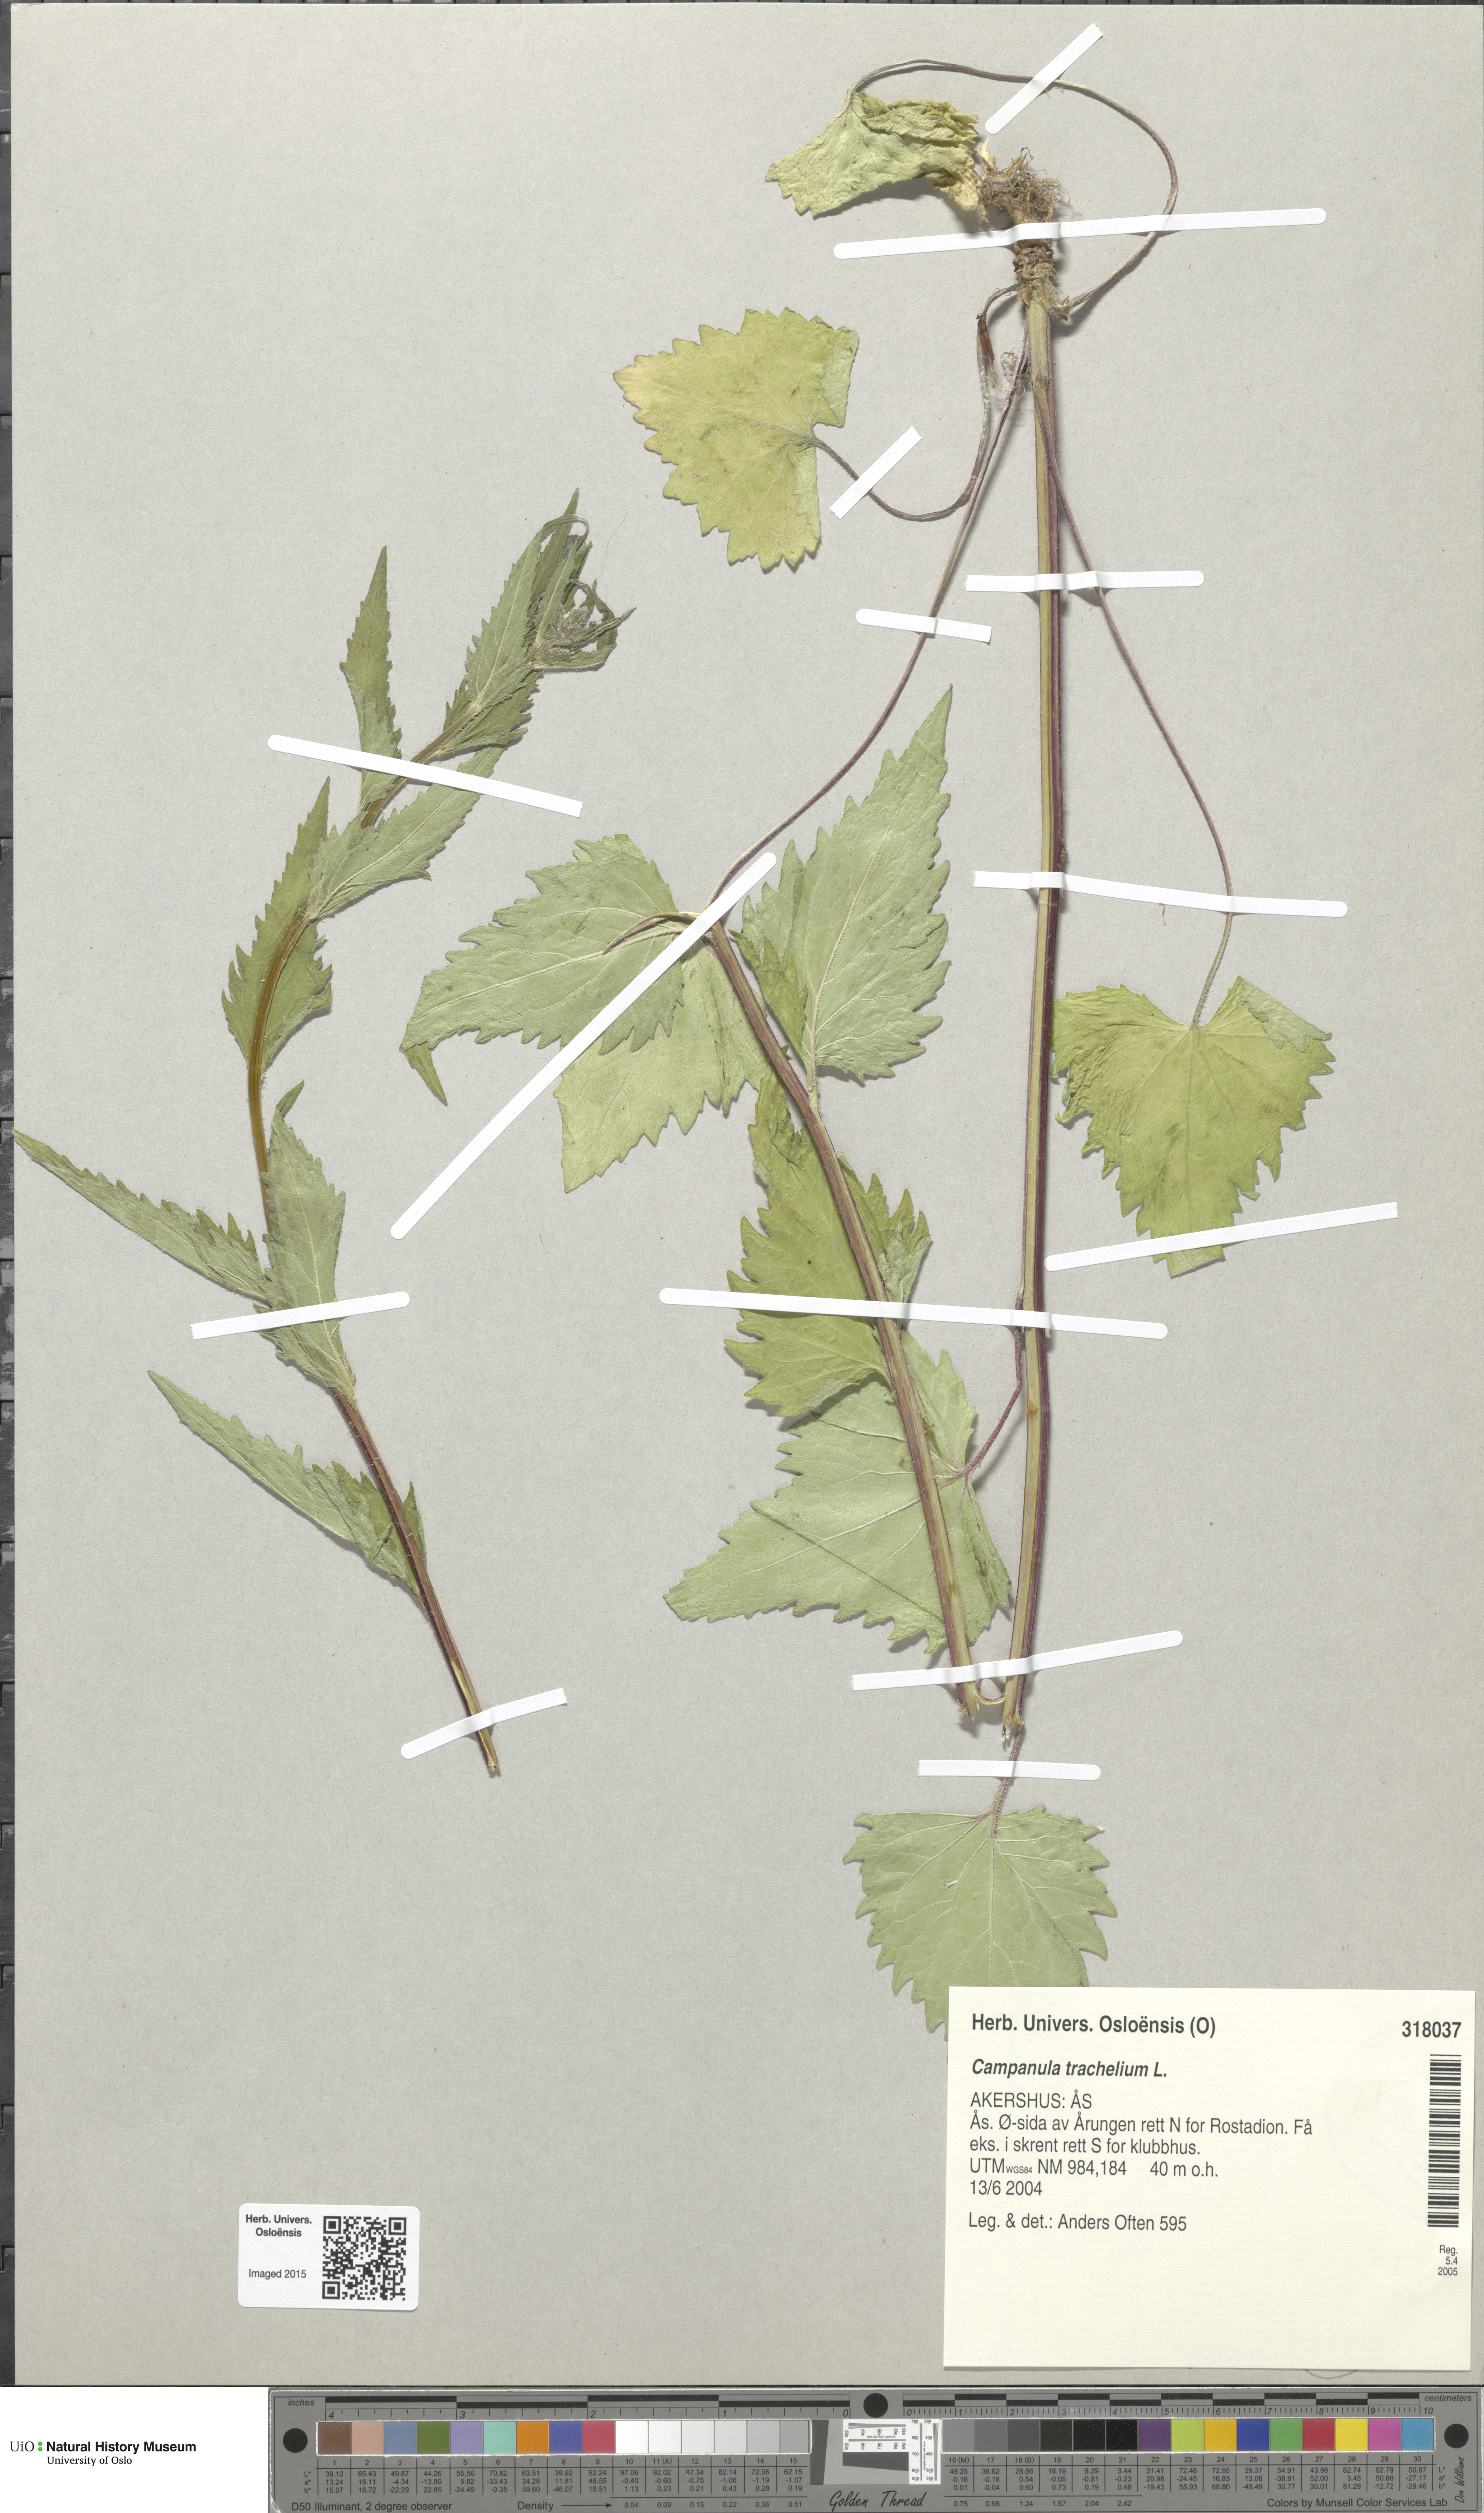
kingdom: Plantae
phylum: Tracheophyta
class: Magnoliopsida
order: Asterales
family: Campanulaceae
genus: Campanula
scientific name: Campanula trachelium
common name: Nettle-leaved bellflower
